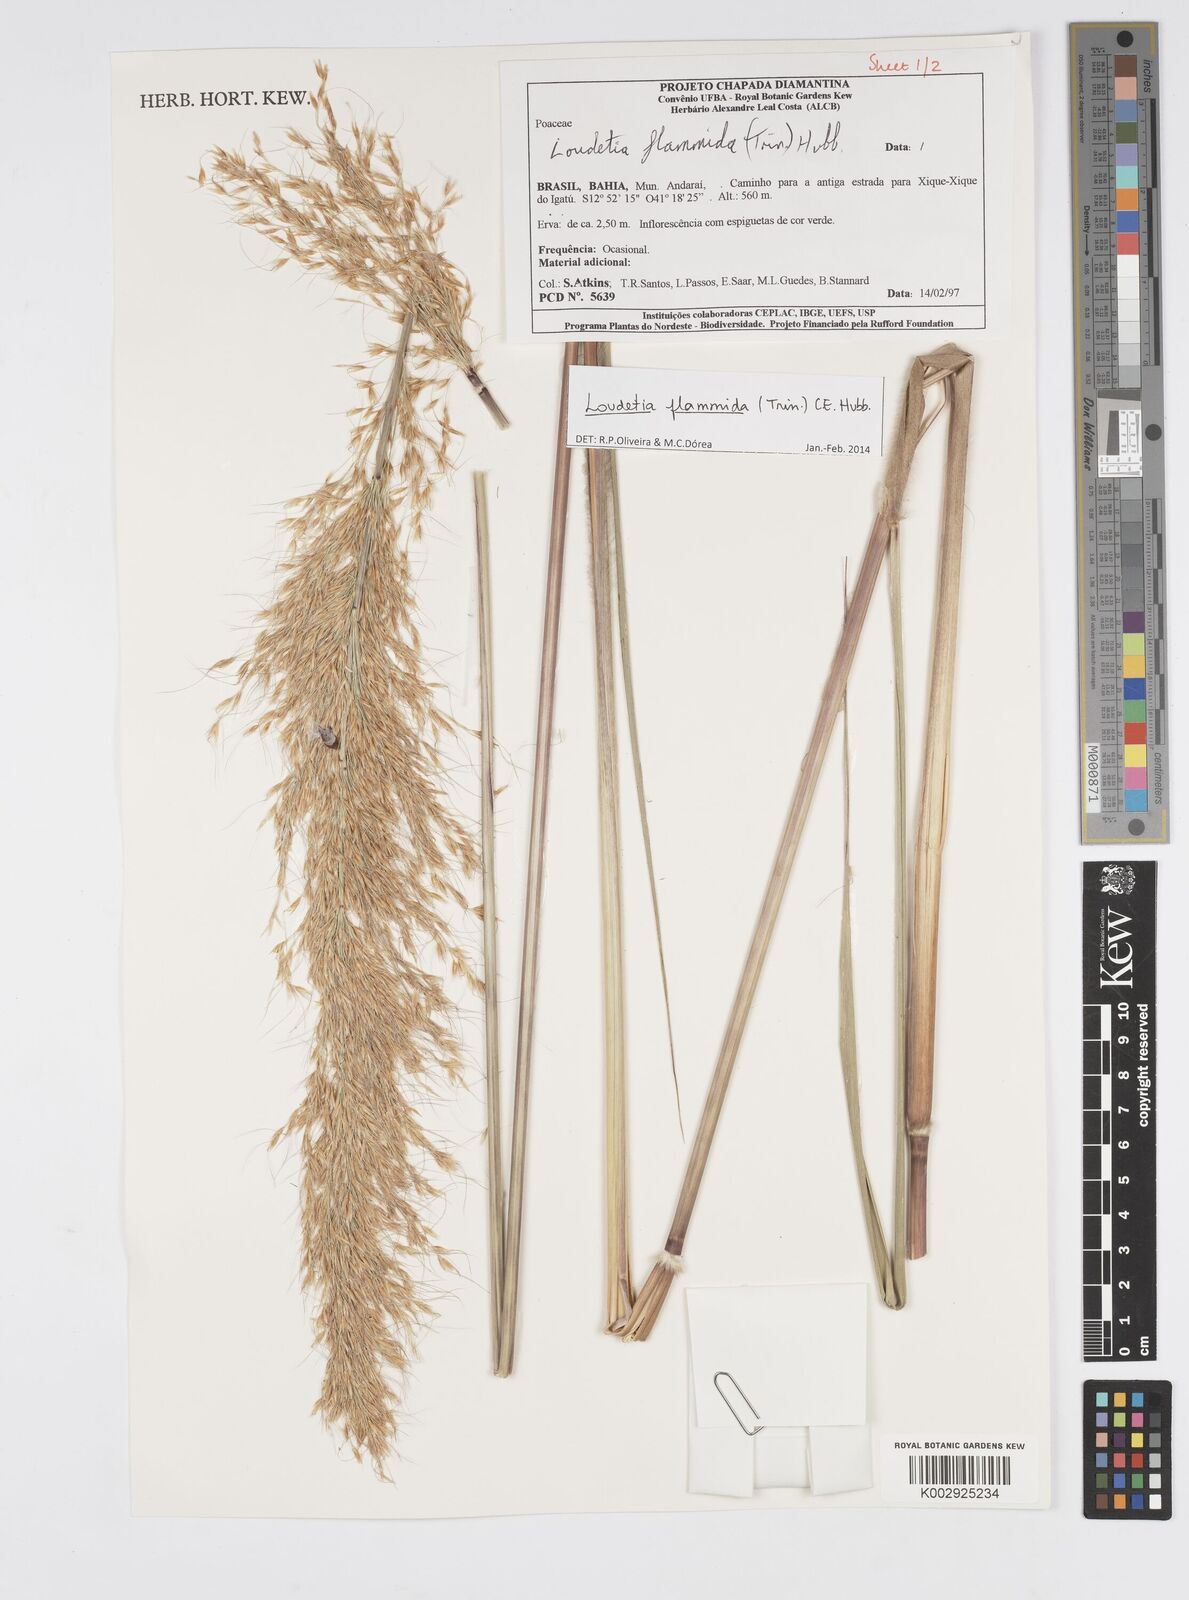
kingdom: Plantae
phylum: Tracheophyta
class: Liliopsida
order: Poales
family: Poaceae
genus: Loudetia
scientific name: Loudetia flammida
